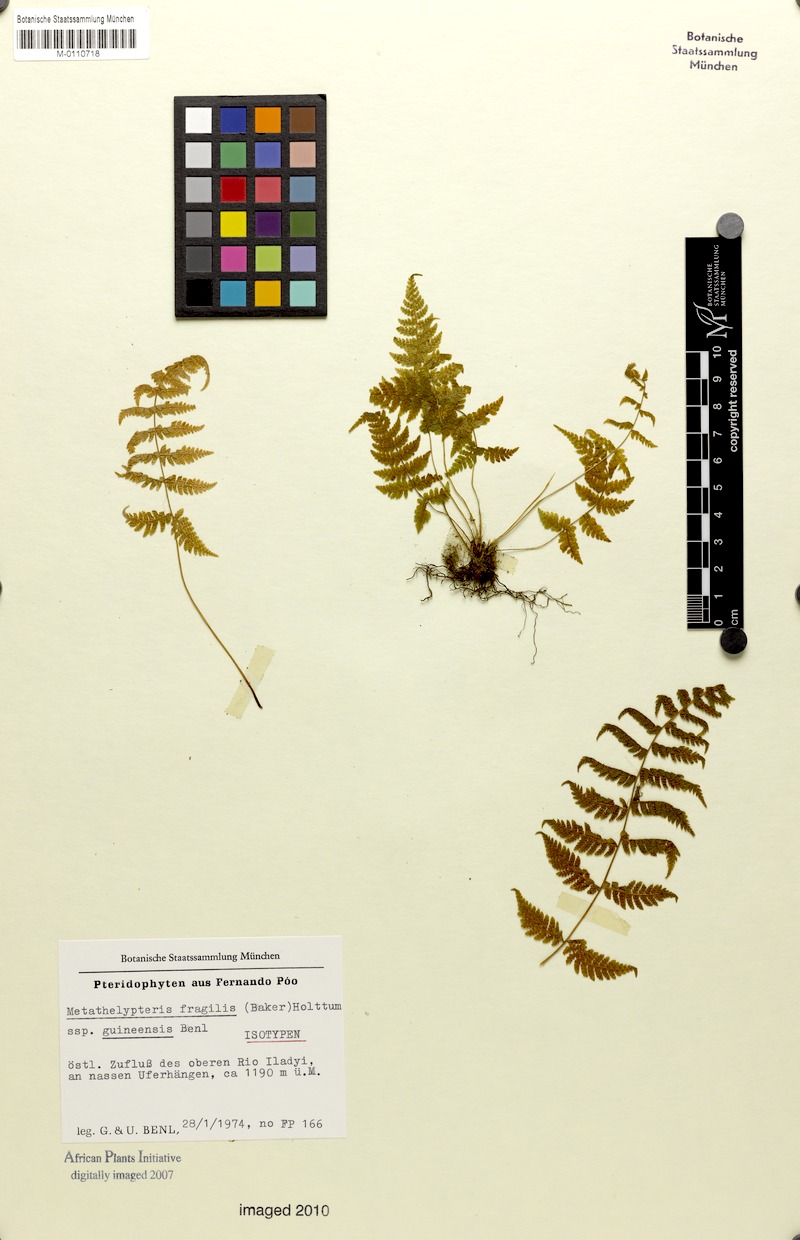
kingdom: Plantae
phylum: Tracheophyta
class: Polypodiopsida
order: Polypodiales
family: Thelypteridaceae
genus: Metathelypteris
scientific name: Metathelypteris fragilis
